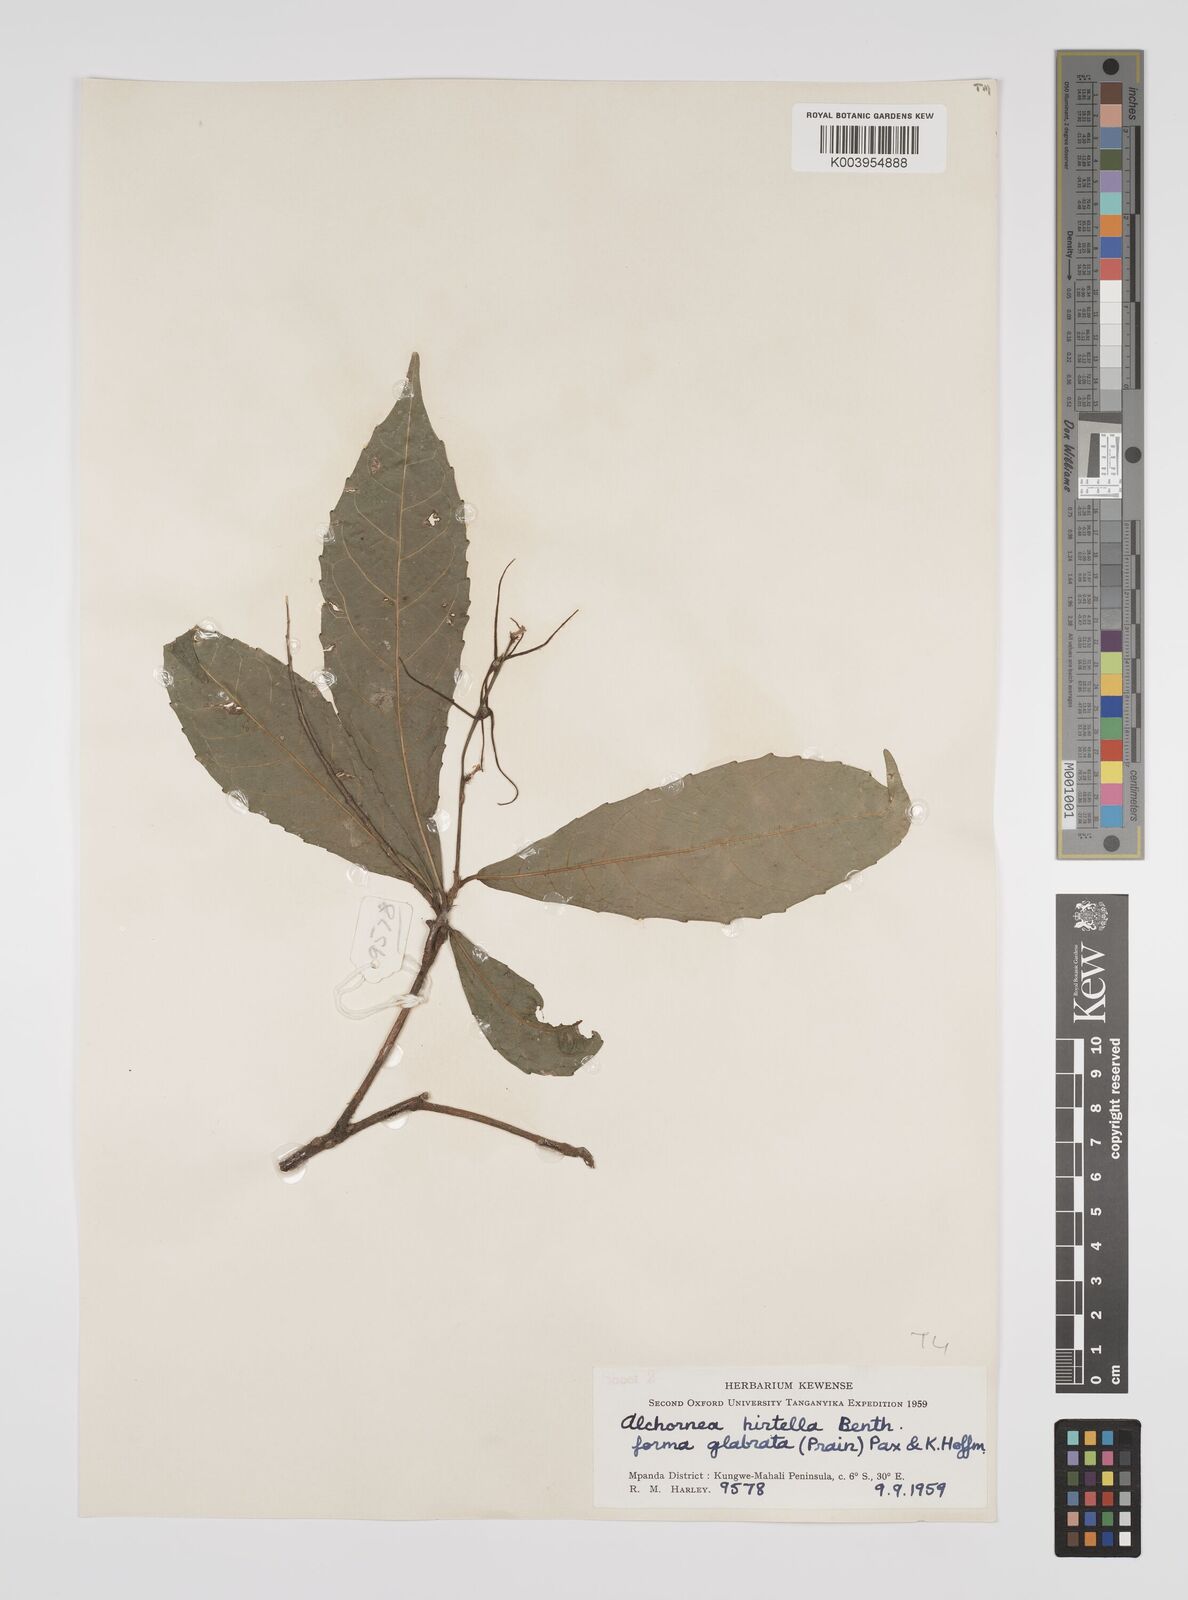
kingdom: Plantae
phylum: Tracheophyta
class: Magnoliopsida
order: Malpighiales
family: Euphorbiaceae
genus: Alchornea
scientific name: Alchornea hirtella
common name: Forest bead-string
